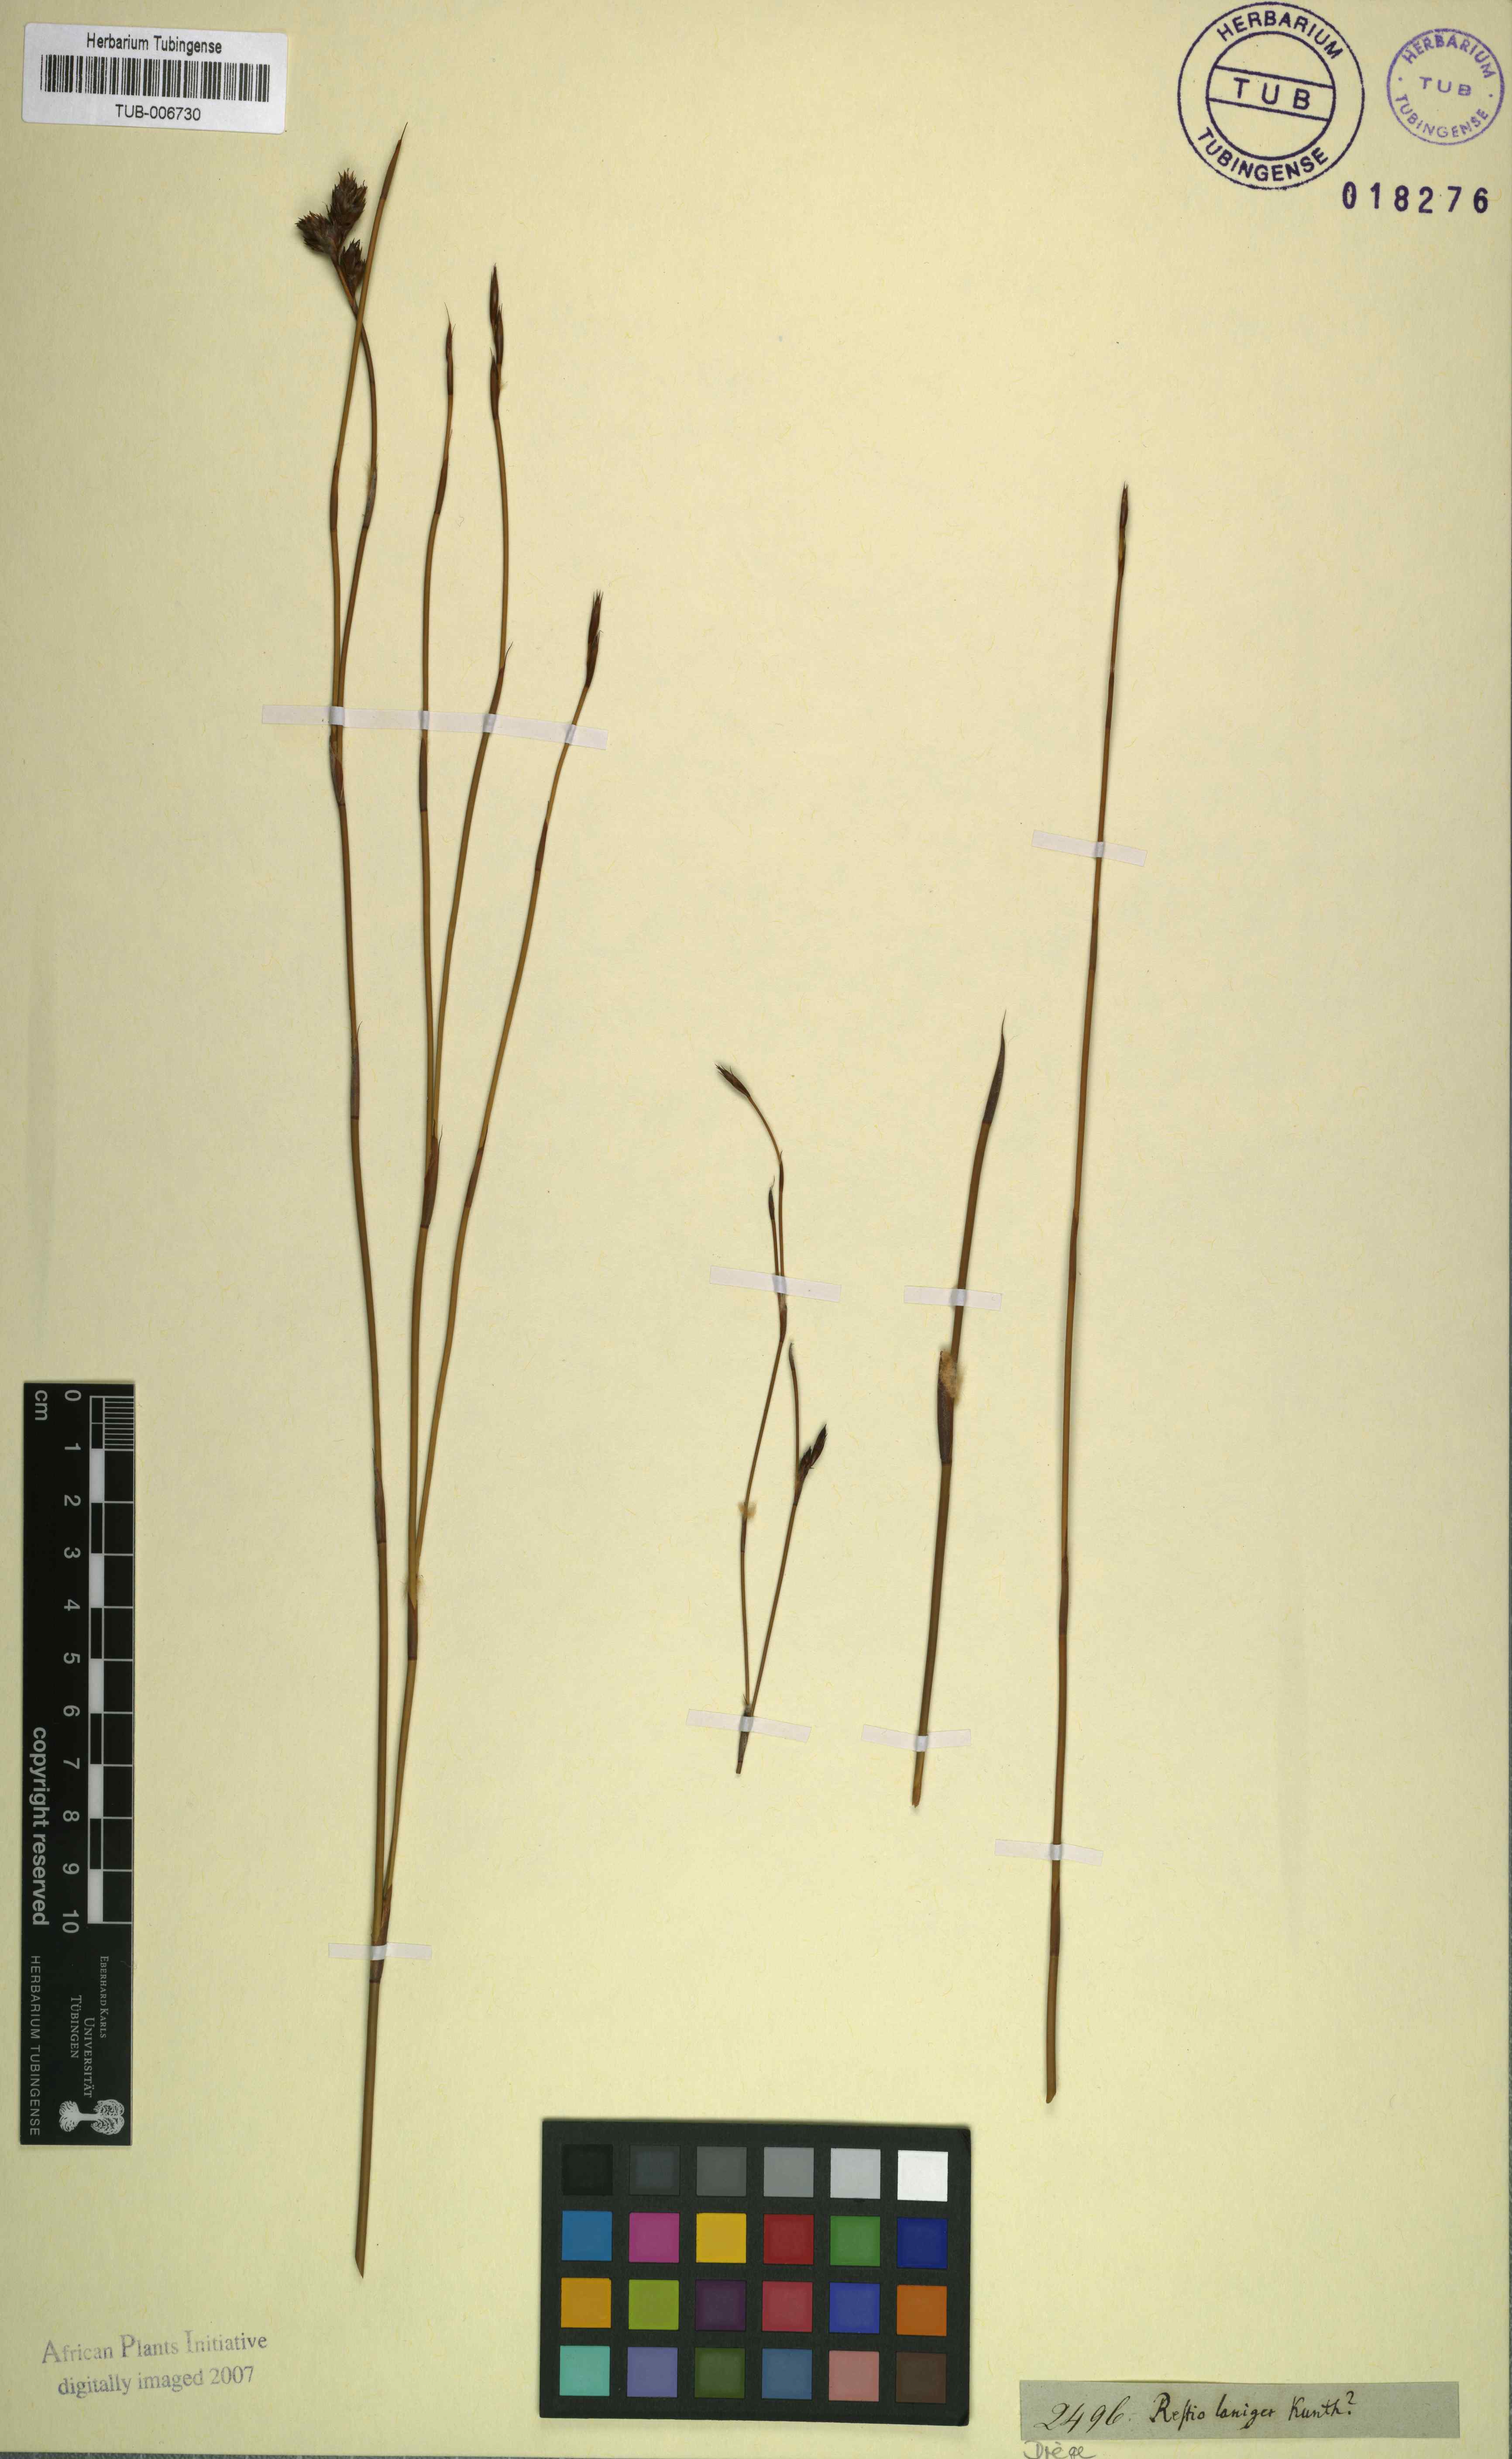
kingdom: Plantae
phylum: Tracheophyta
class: Liliopsida
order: Poales
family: Restionaceae
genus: Restio
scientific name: Restio laniger
